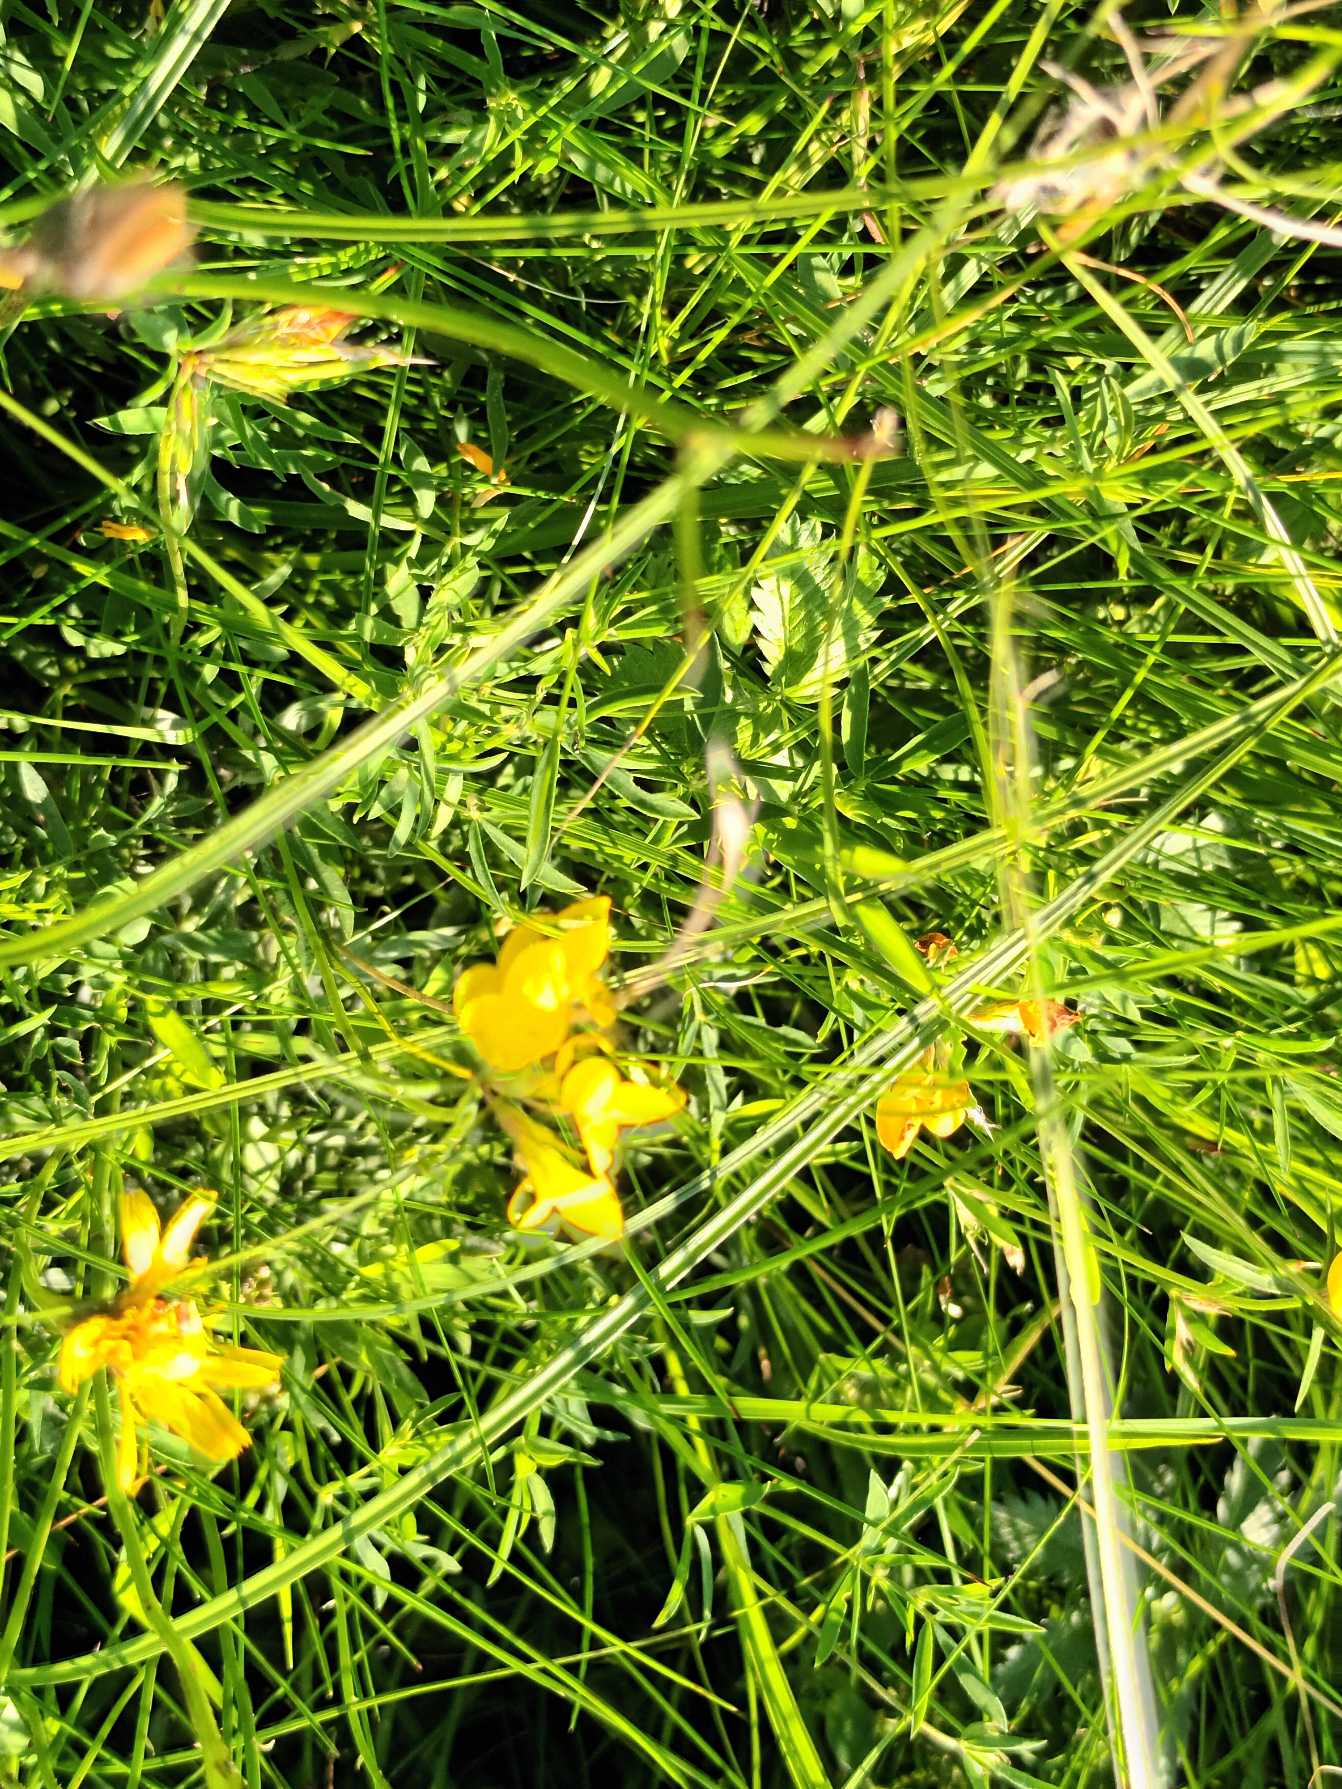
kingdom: Plantae
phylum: Tracheophyta
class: Magnoliopsida
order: Fabales
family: Fabaceae
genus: Lotus
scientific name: Lotus tenuis
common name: Smalbladet kællingetand
